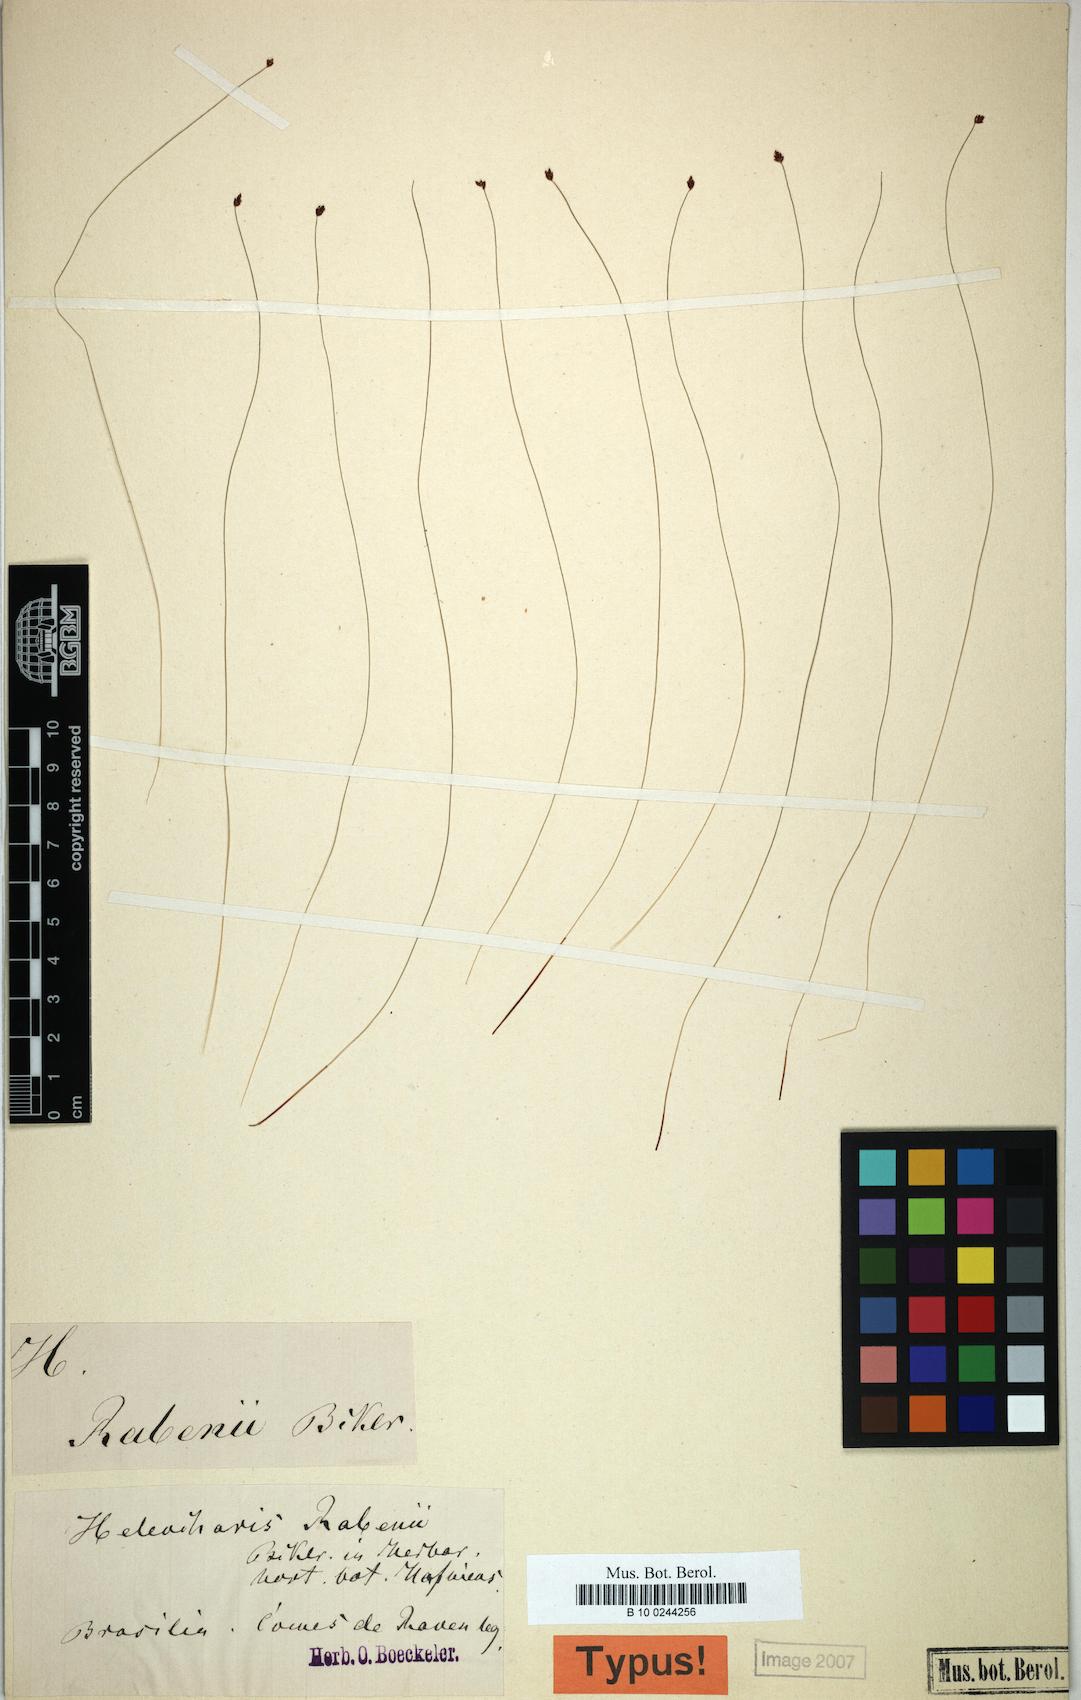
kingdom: Plantae
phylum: Tracheophyta
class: Liliopsida
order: Poales
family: Cyperaceae
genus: Eleocharis
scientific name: Eleocharis rabenii
